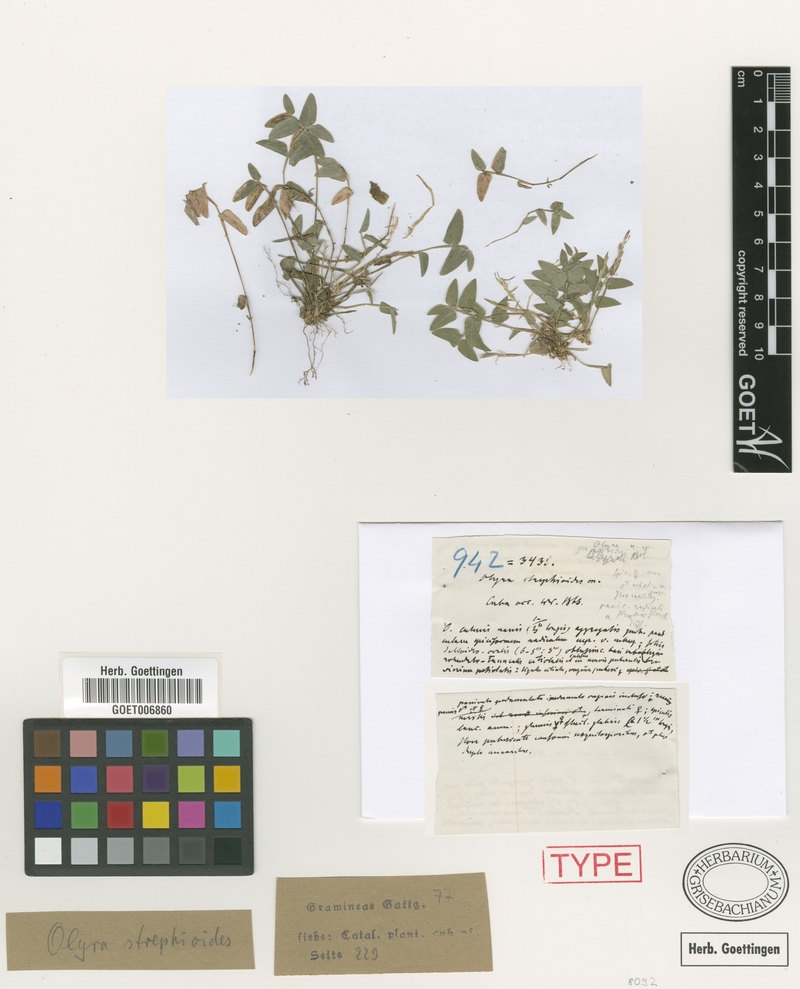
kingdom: Plantae
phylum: Tracheophyta
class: Liliopsida
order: Poales
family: Poaceae
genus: Piresiella
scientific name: Piresiella strephioides
